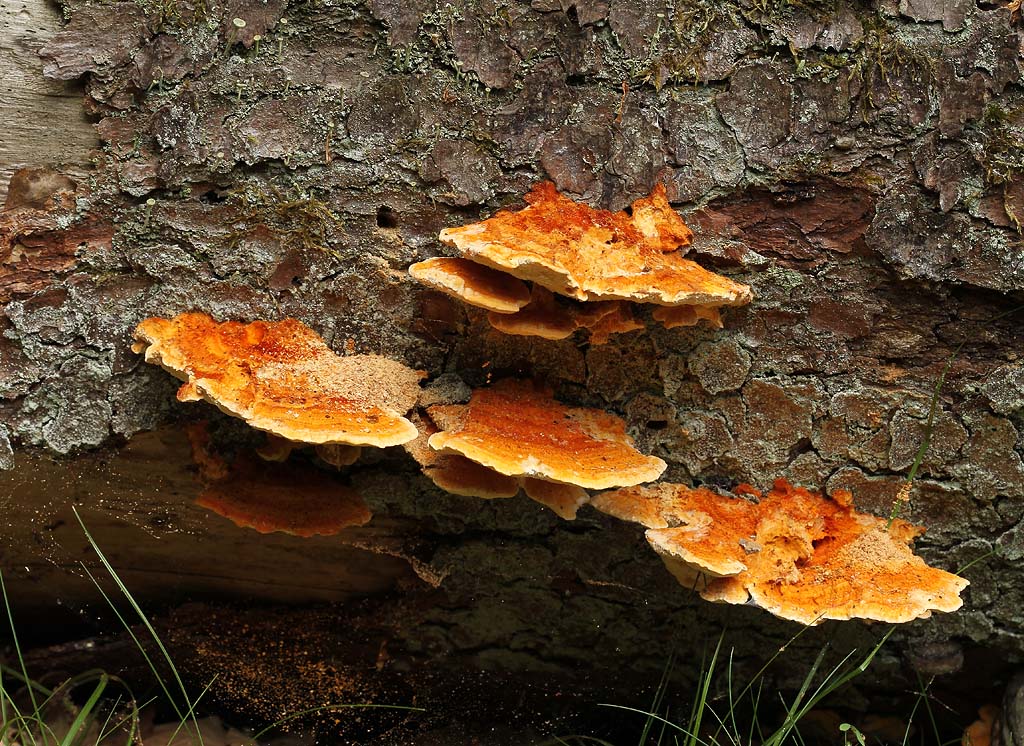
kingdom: Fungi
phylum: Basidiomycota
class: Agaricomycetes
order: Polyporales
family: Pycnoporellaceae
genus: Pycnoporellus
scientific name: Pycnoporellus fulgens
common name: flammeporesvamp
